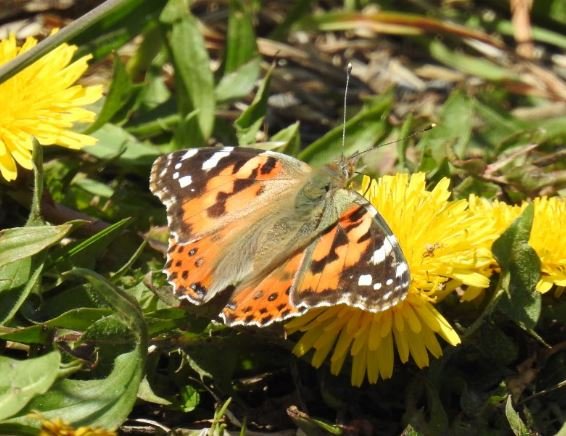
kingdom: Animalia
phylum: Arthropoda
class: Insecta
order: Lepidoptera
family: Nymphalidae
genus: Vanessa
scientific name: Vanessa cardui
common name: Painted Lady
